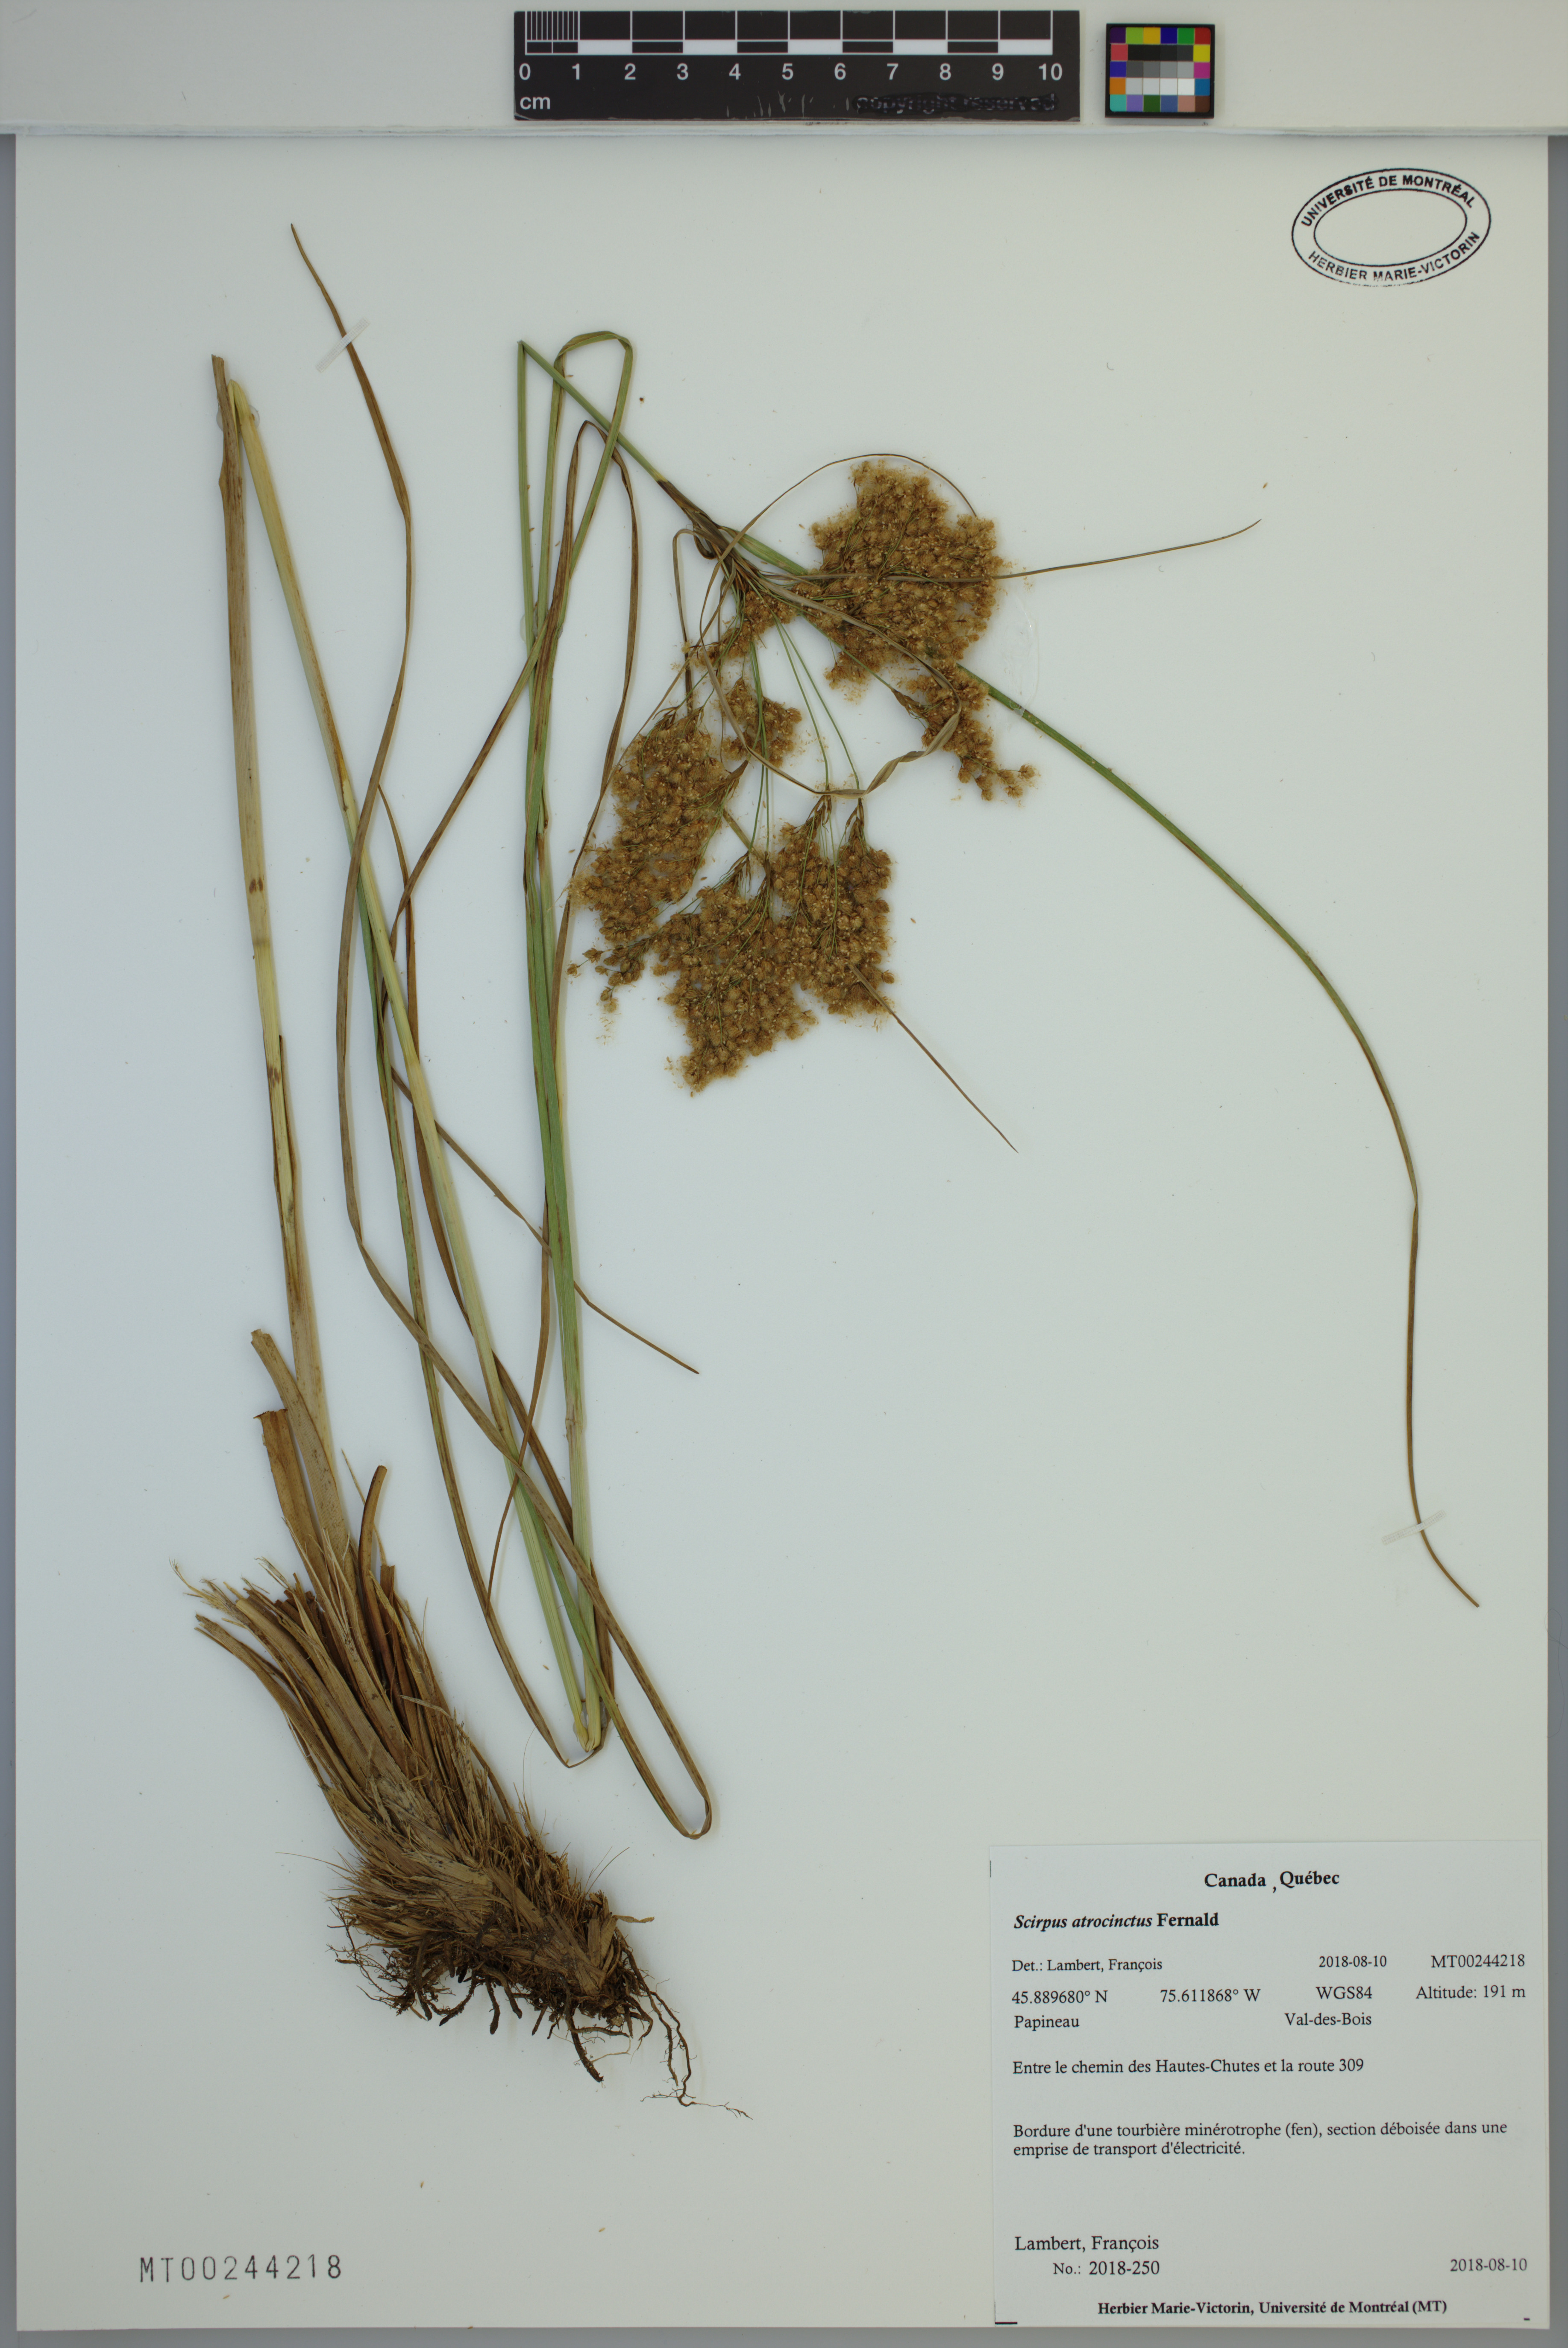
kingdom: Plantae
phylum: Tracheophyta
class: Liliopsida
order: Poales
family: Cyperaceae
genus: Scirpus
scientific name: Scirpus atrocinctus
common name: Black-girdled bulrush
